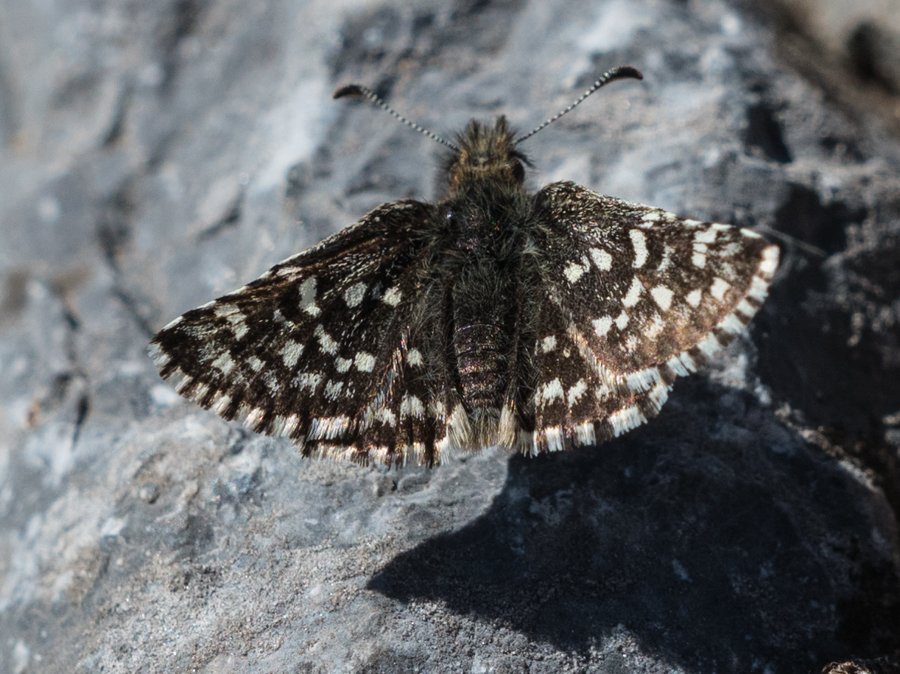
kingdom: Animalia
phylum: Arthropoda
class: Insecta
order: Lepidoptera
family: Hesperiidae
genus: Pyrgus
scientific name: Pyrgus ruralis
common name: Two-banded Checkered-Skipper
